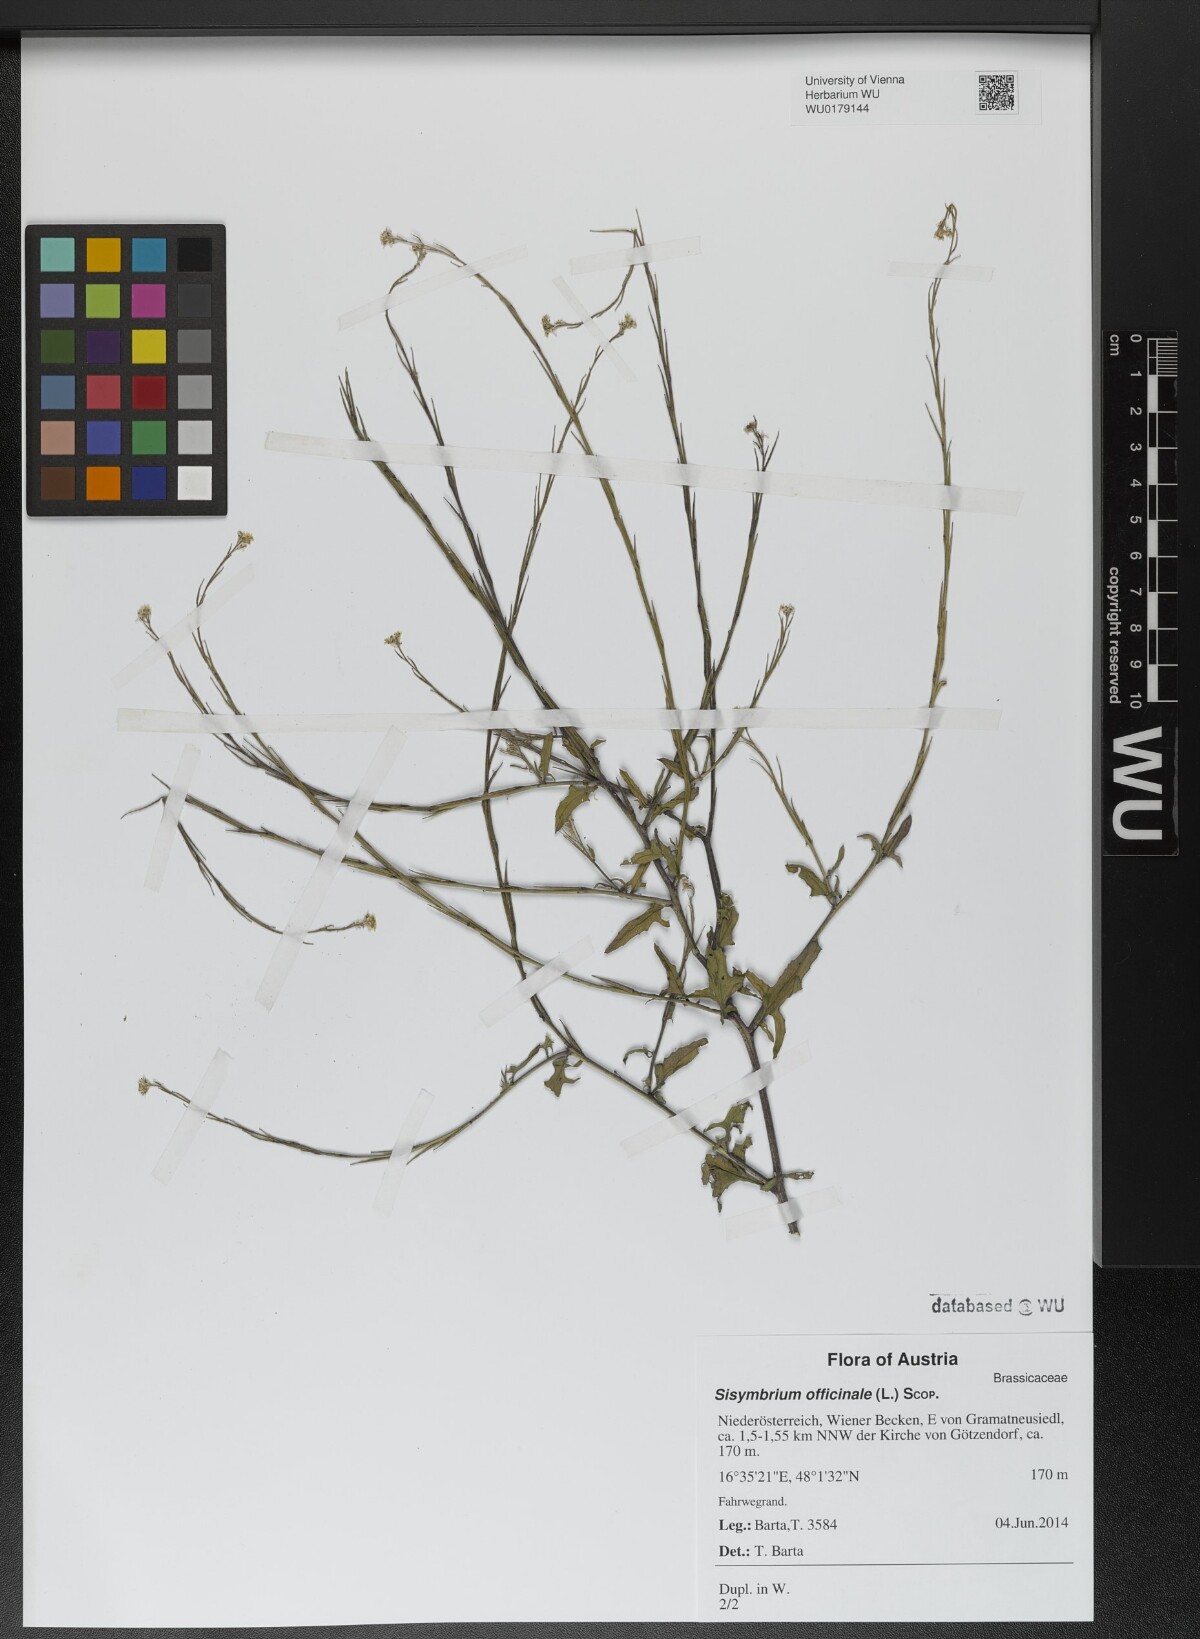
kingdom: Plantae
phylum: Tracheophyta
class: Magnoliopsida
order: Brassicales
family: Brassicaceae
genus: Sisymbrium
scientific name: Sisymbrium officinale
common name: Hedge mustard
